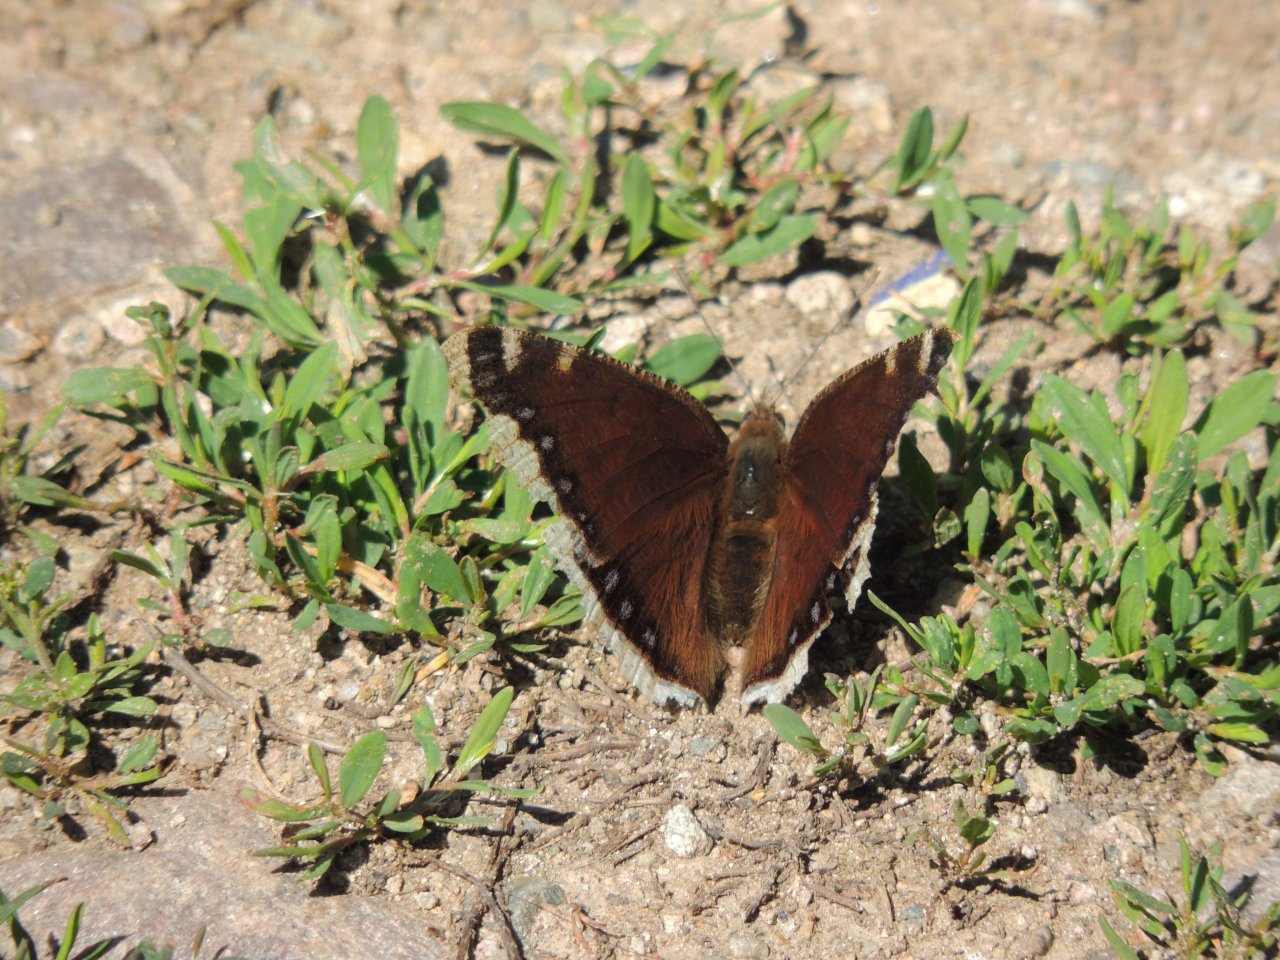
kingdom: Animalia
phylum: Arthropoda
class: Insecta
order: Lepidoptera
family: Nymphalidae
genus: Nymphalis
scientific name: Nymphalis antiopa
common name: Mourning Cloak
